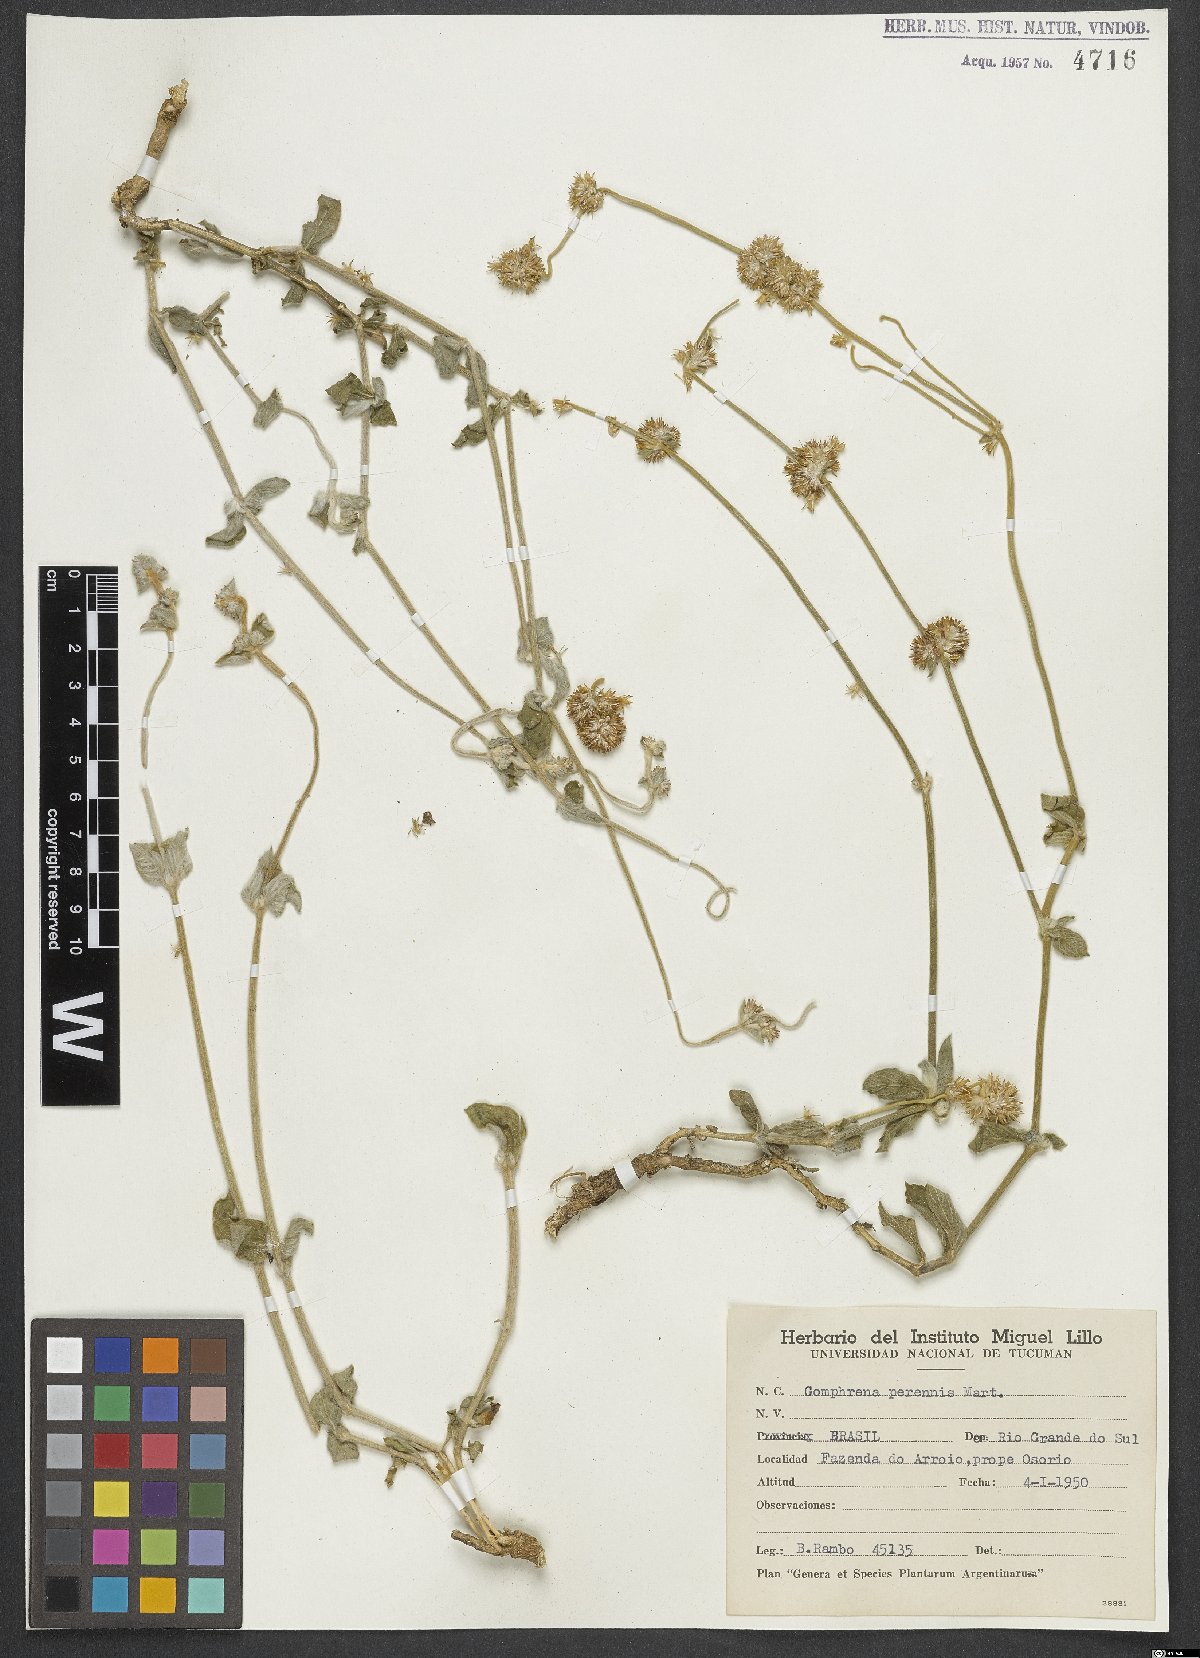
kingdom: Plantae
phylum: Tracheophyta
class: Magnoliopsida
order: Caryophyllales
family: Amaranthaceae
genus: Gomphrena
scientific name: Gomphrena perennis
